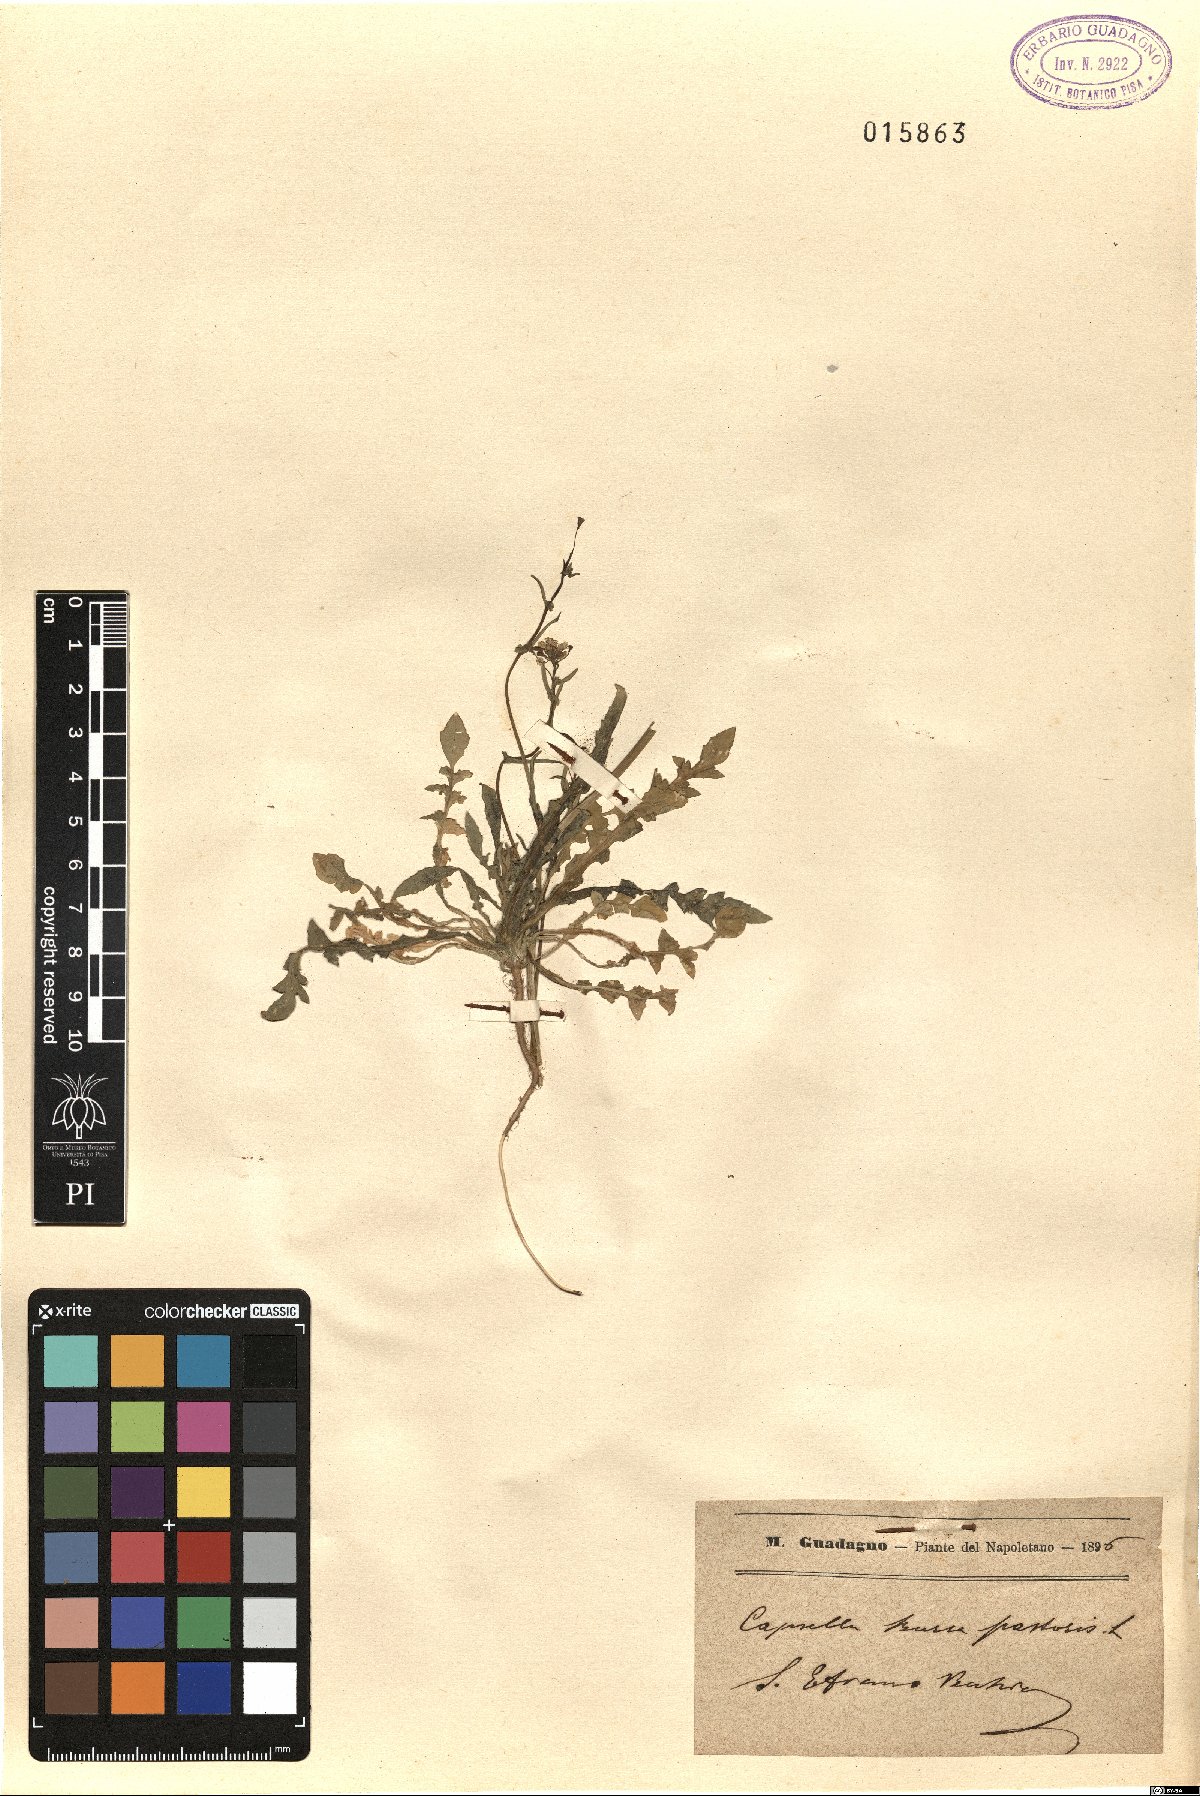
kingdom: Plantae
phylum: Tracheophyta
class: Magnoliopsida
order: Brassicales
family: Brassicaceae
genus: Capsella
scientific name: Capsella bursa-pastoris
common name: Shepherd's purse
